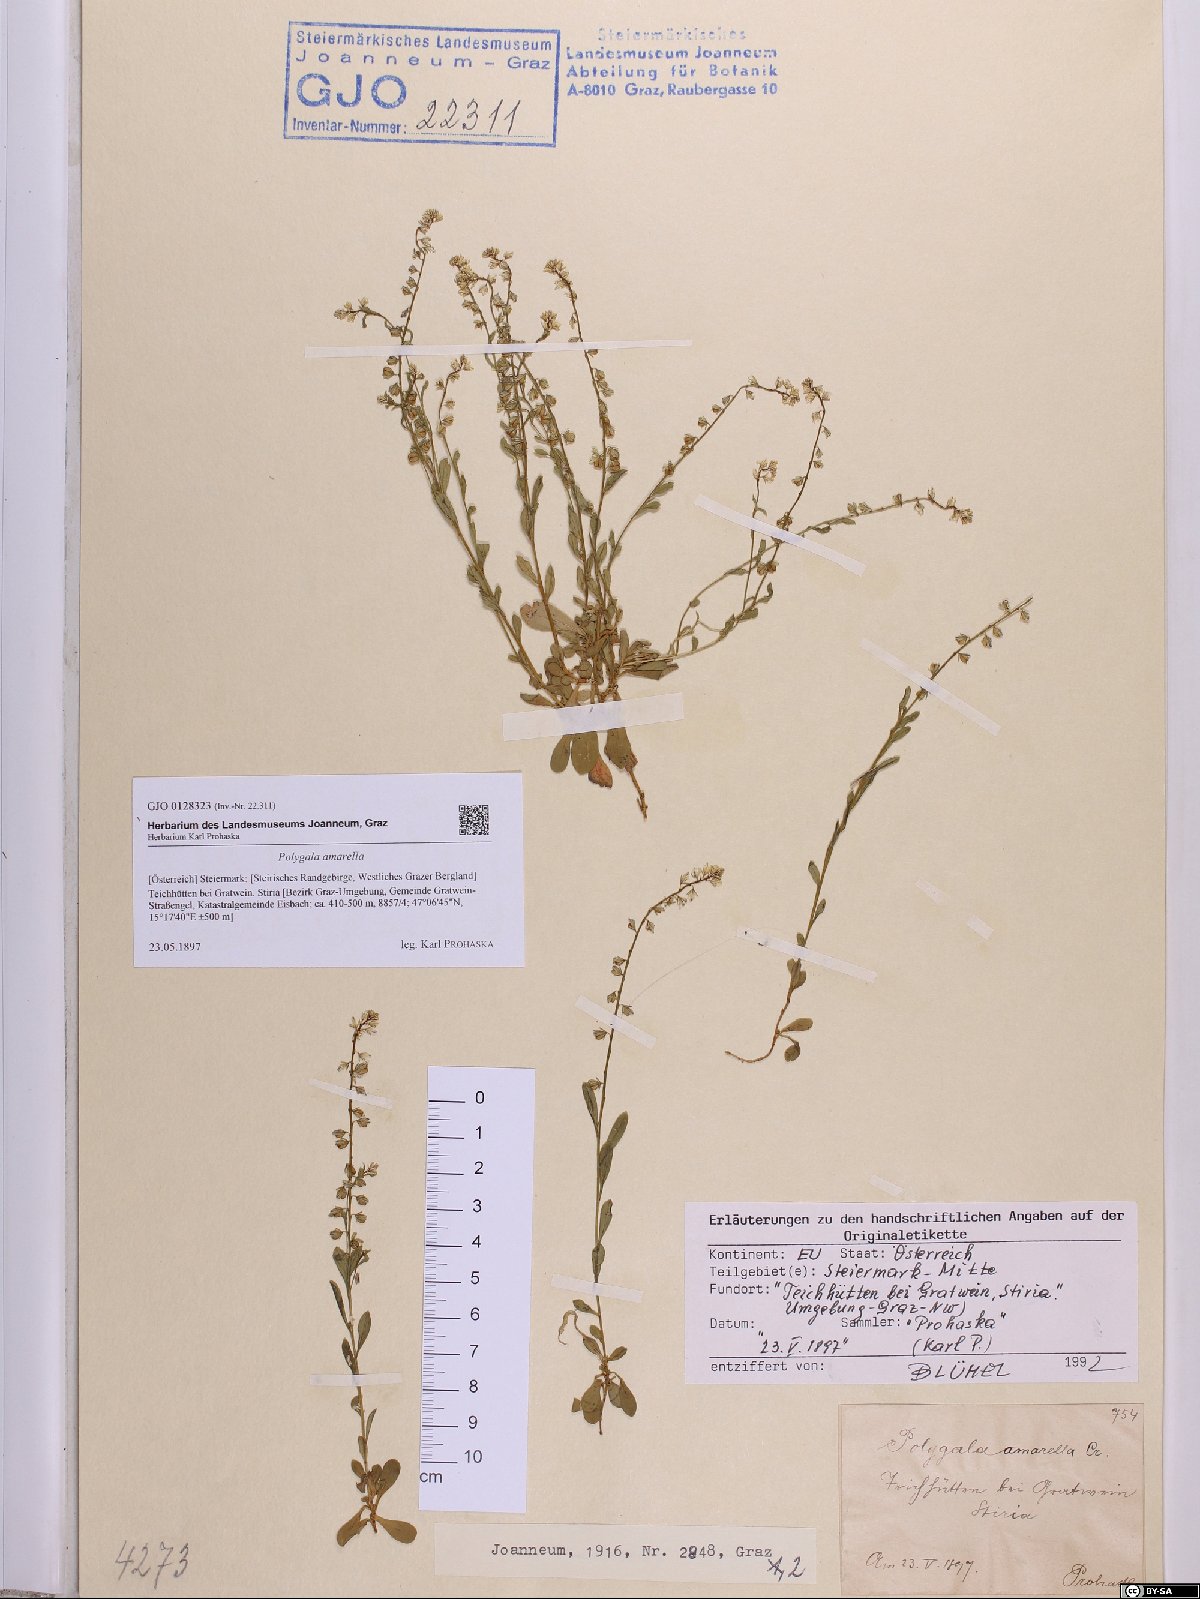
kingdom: Plantae
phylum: Tracheophyta
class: Magnoliopsida
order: Fabales
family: Polygalaceae
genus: Polygala
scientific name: Polygala amarella
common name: Dwarf milkwort
